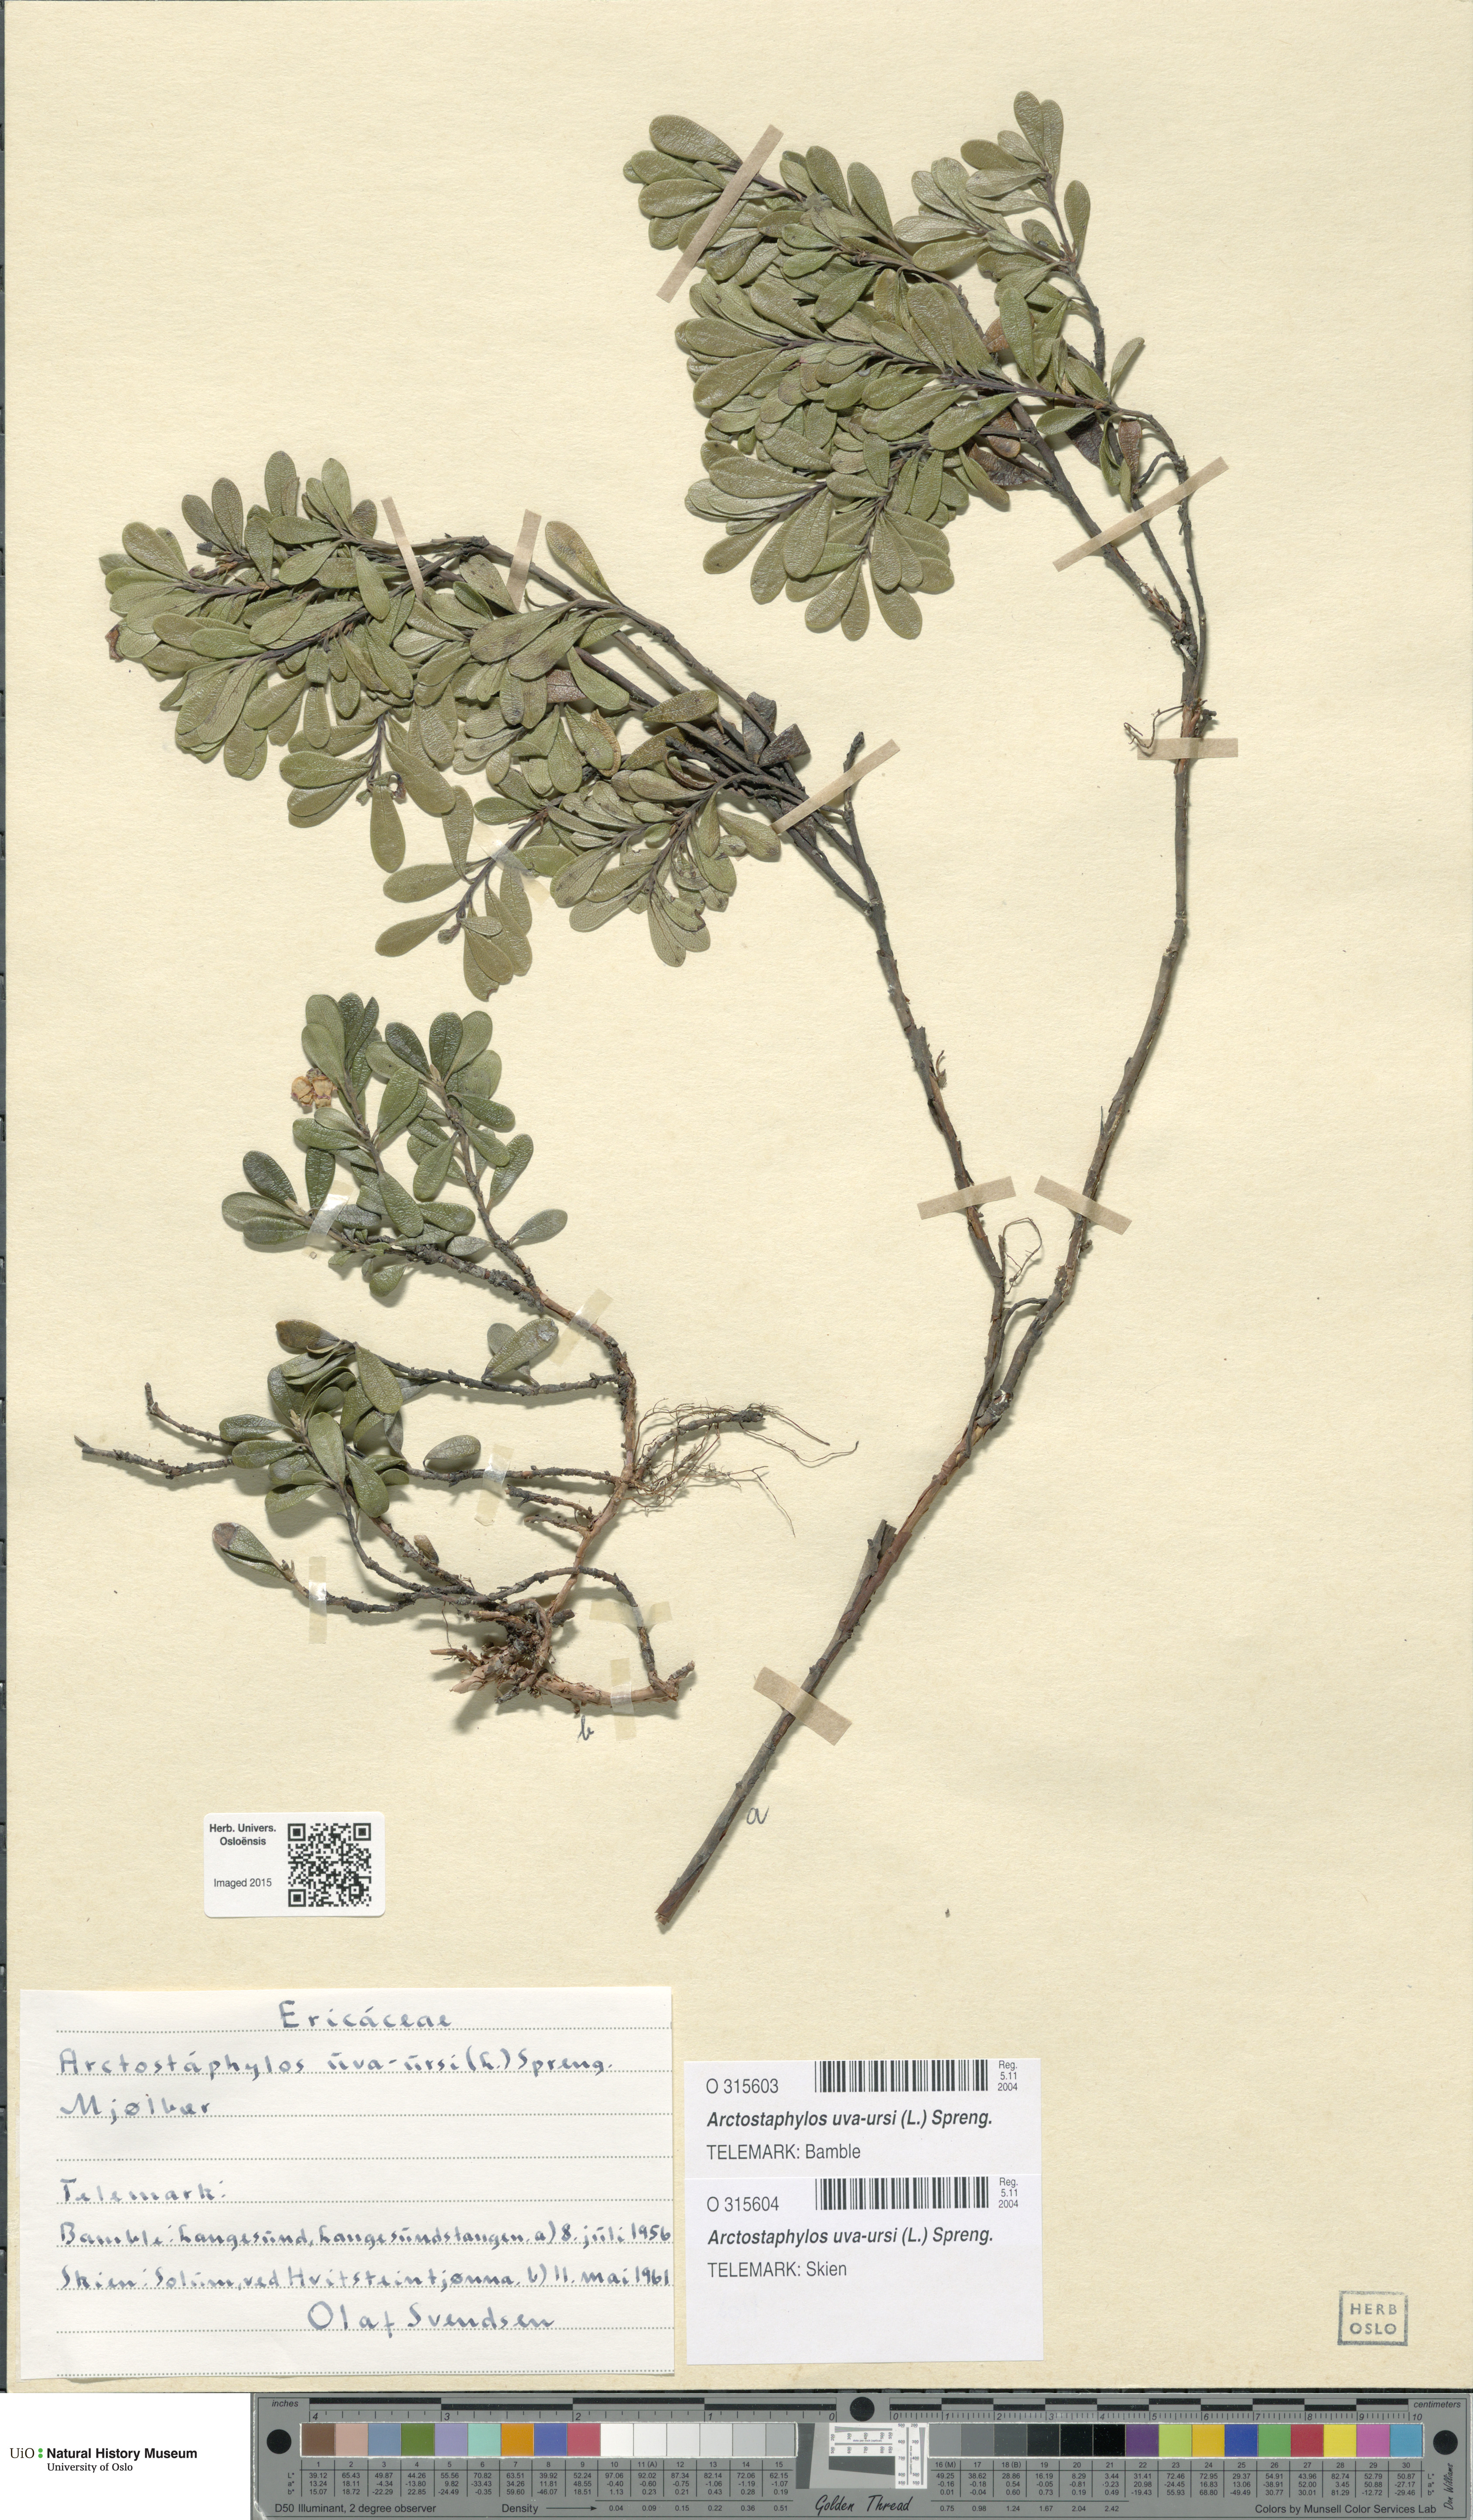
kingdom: Plantae
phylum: Tracheophyta
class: Magnoliopsida
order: Ericales
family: Ericaceae
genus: Arctostaphylos
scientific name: Arctostaphylos uva-ursi
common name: Bearberry
